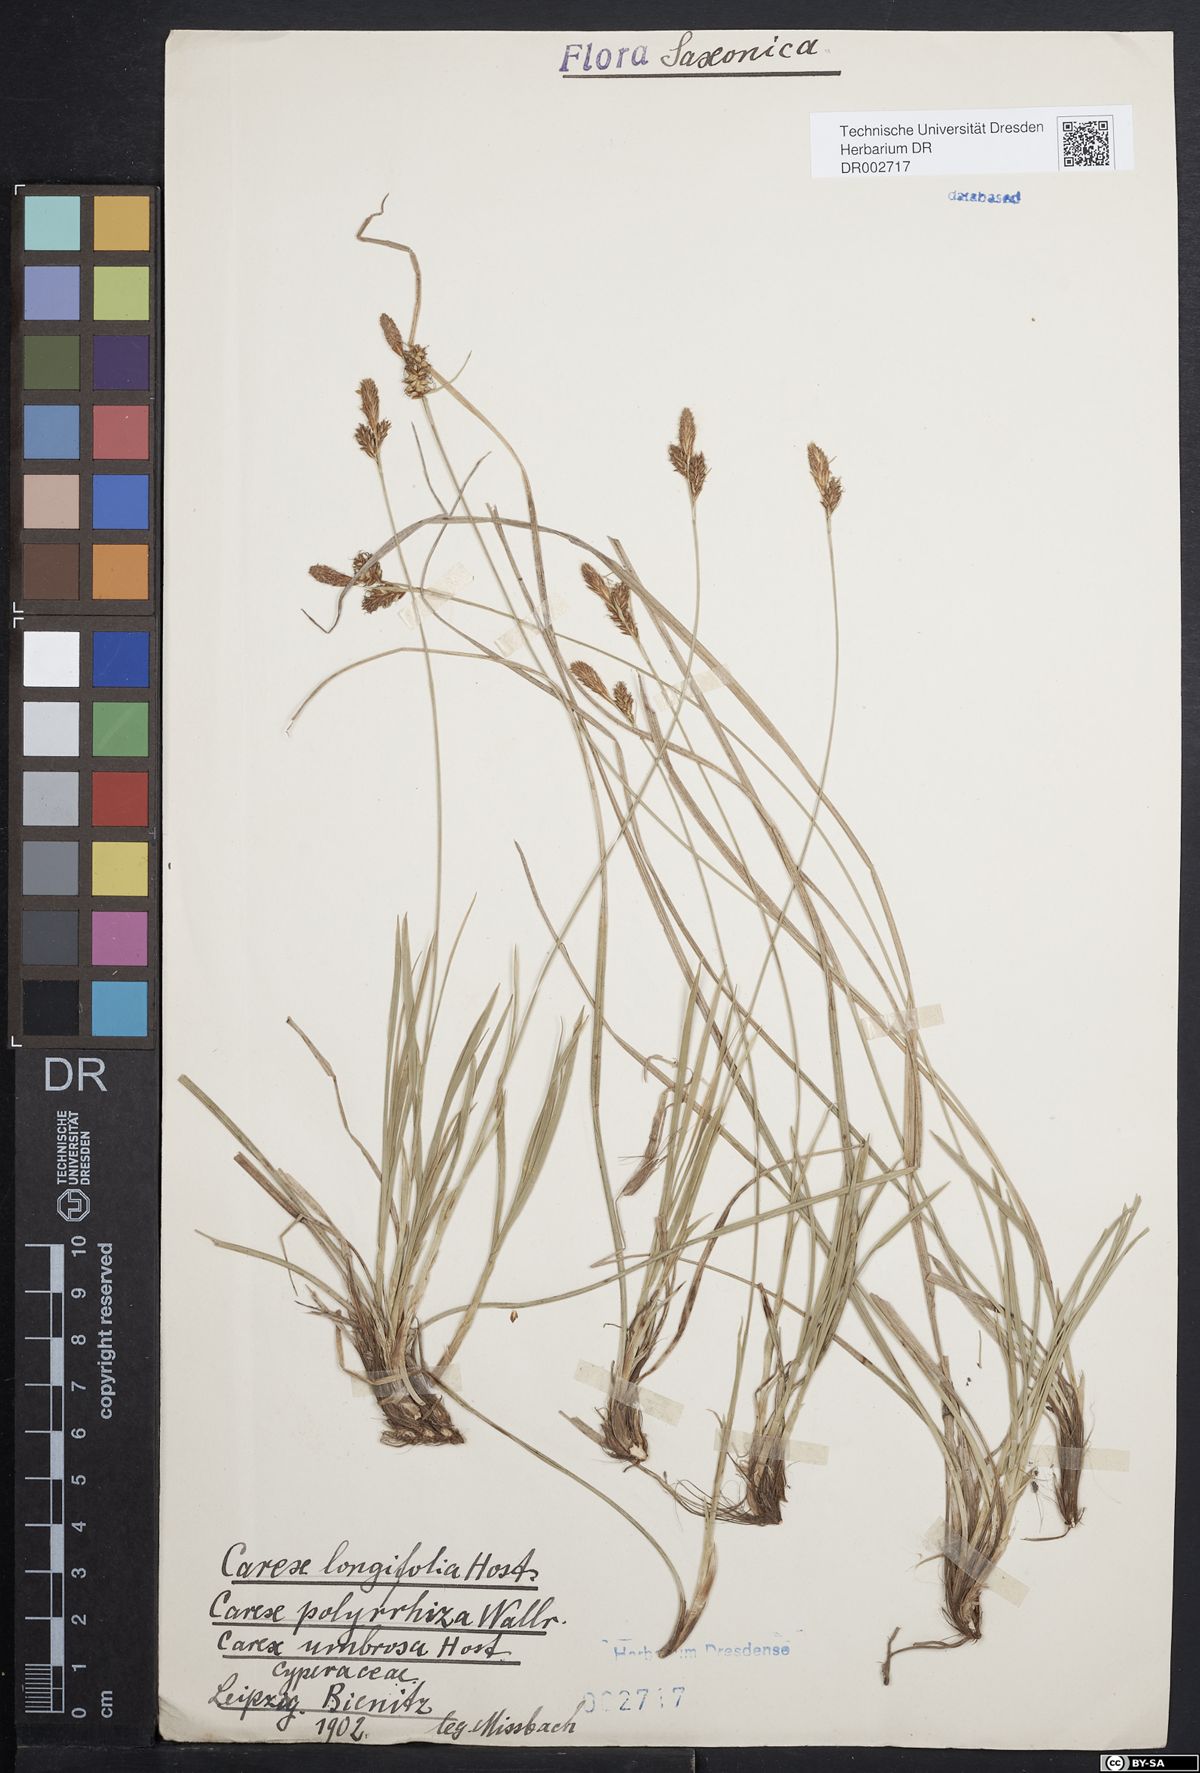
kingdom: Plantae
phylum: Tracheophyta
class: Liliopsida
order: Poales
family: Cyperaceae
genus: Carex
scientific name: Carex umbrosa
